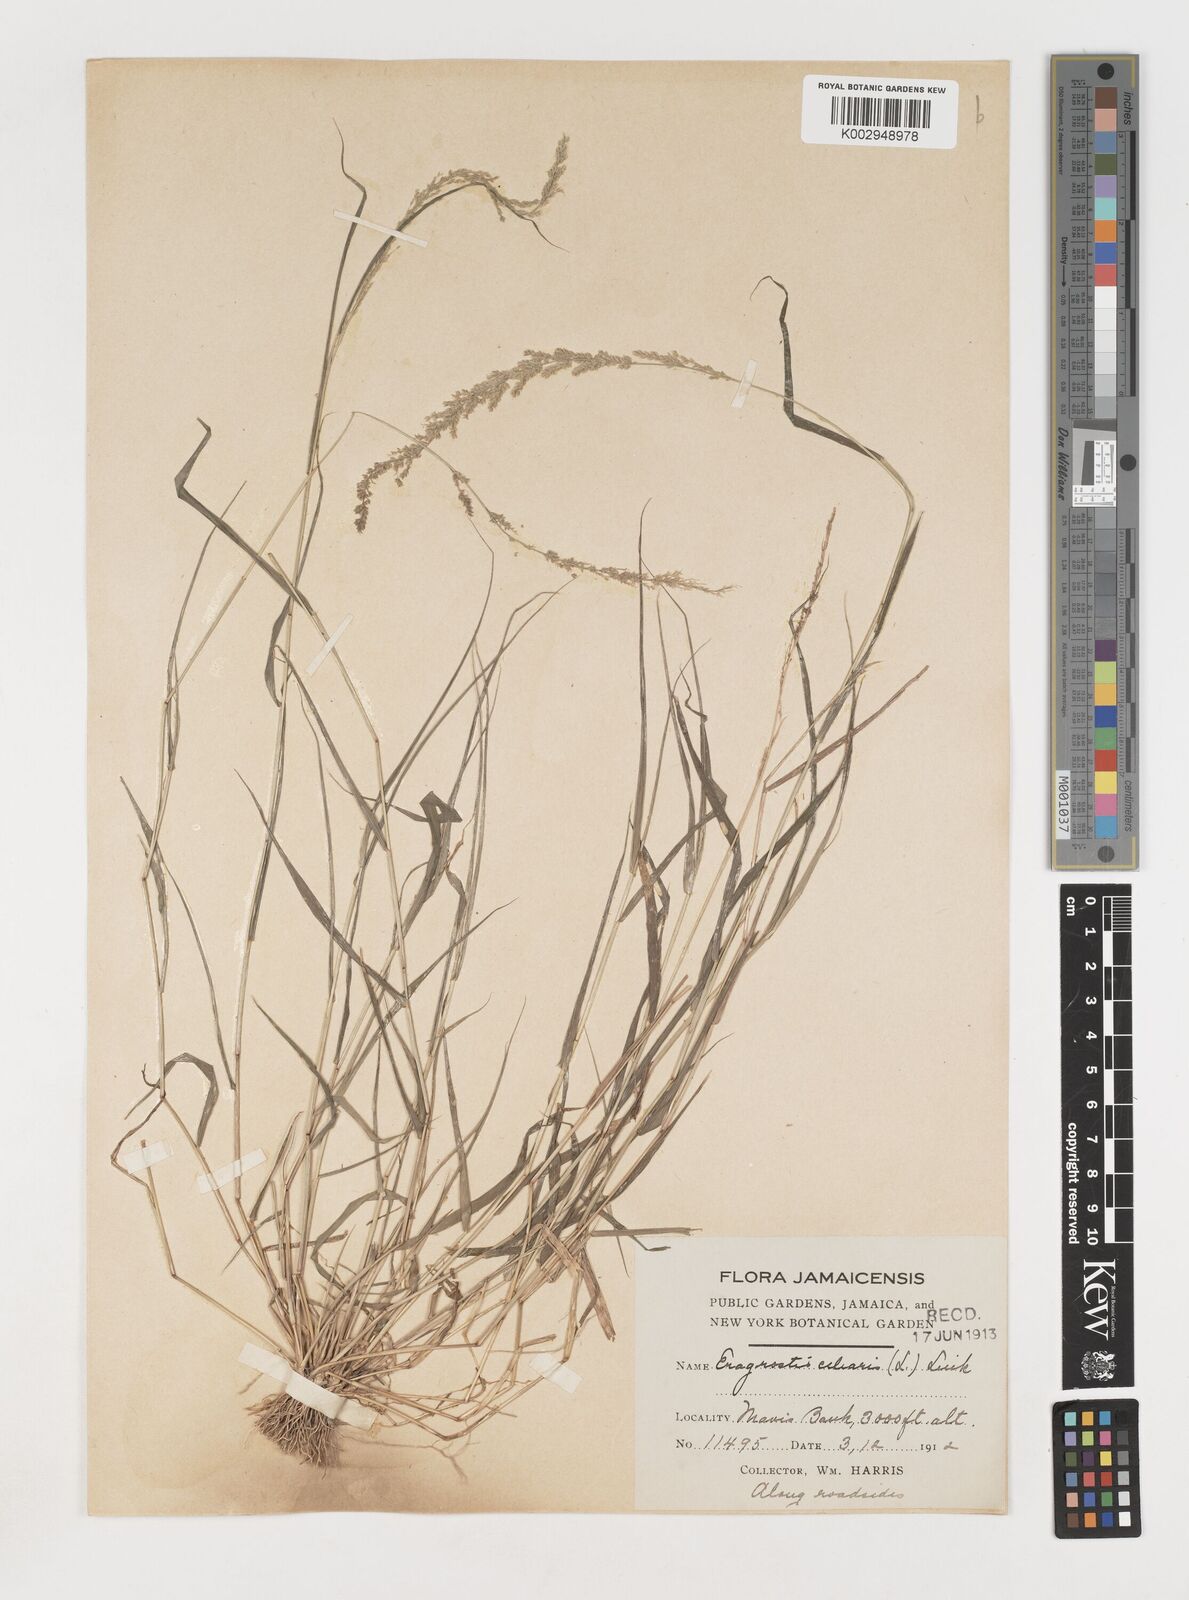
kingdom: Plantae
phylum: Tracheophyta
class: Liliopsida
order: Poales
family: Poaceae
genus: Eragrostis
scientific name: Eragrostis ciliaris
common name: Gophertail lovegrass
